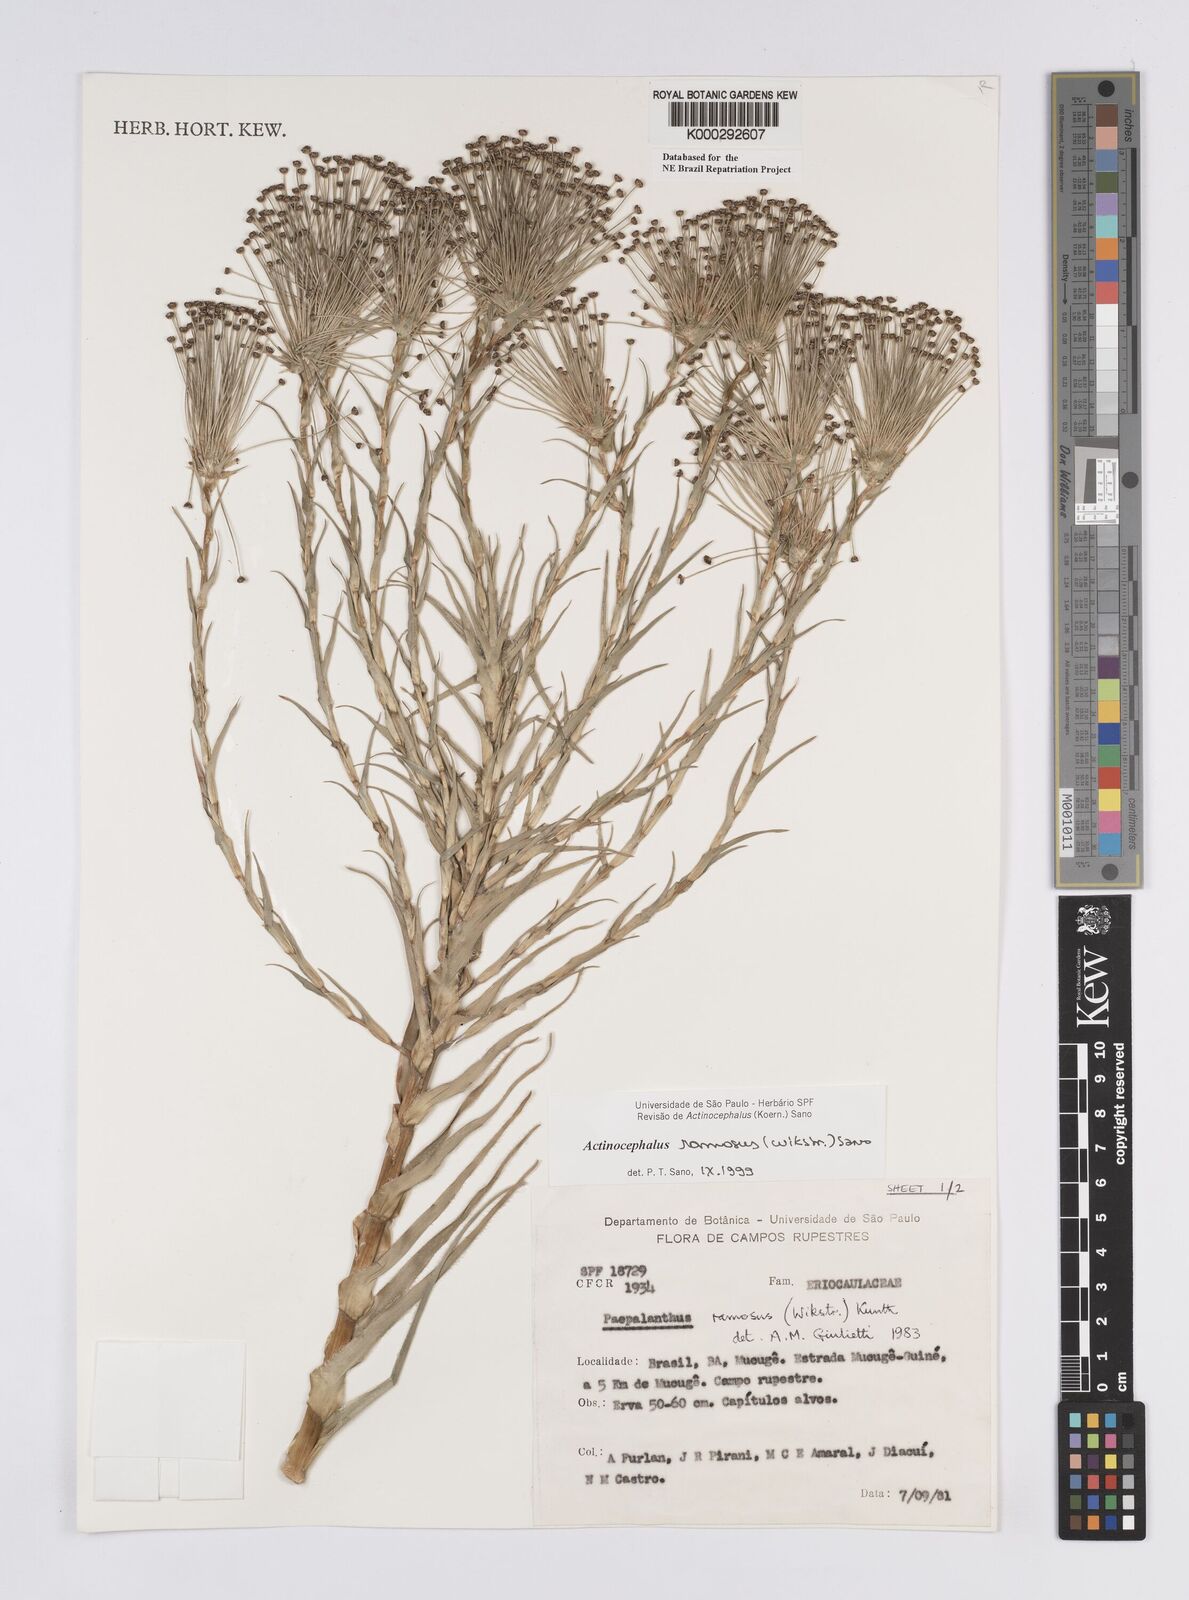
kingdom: Plantae
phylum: Tracheophyta
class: Liliopsida
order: Poales
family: Eriocaulaceae
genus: Paepalanthus
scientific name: Paepalanthus ramosus
